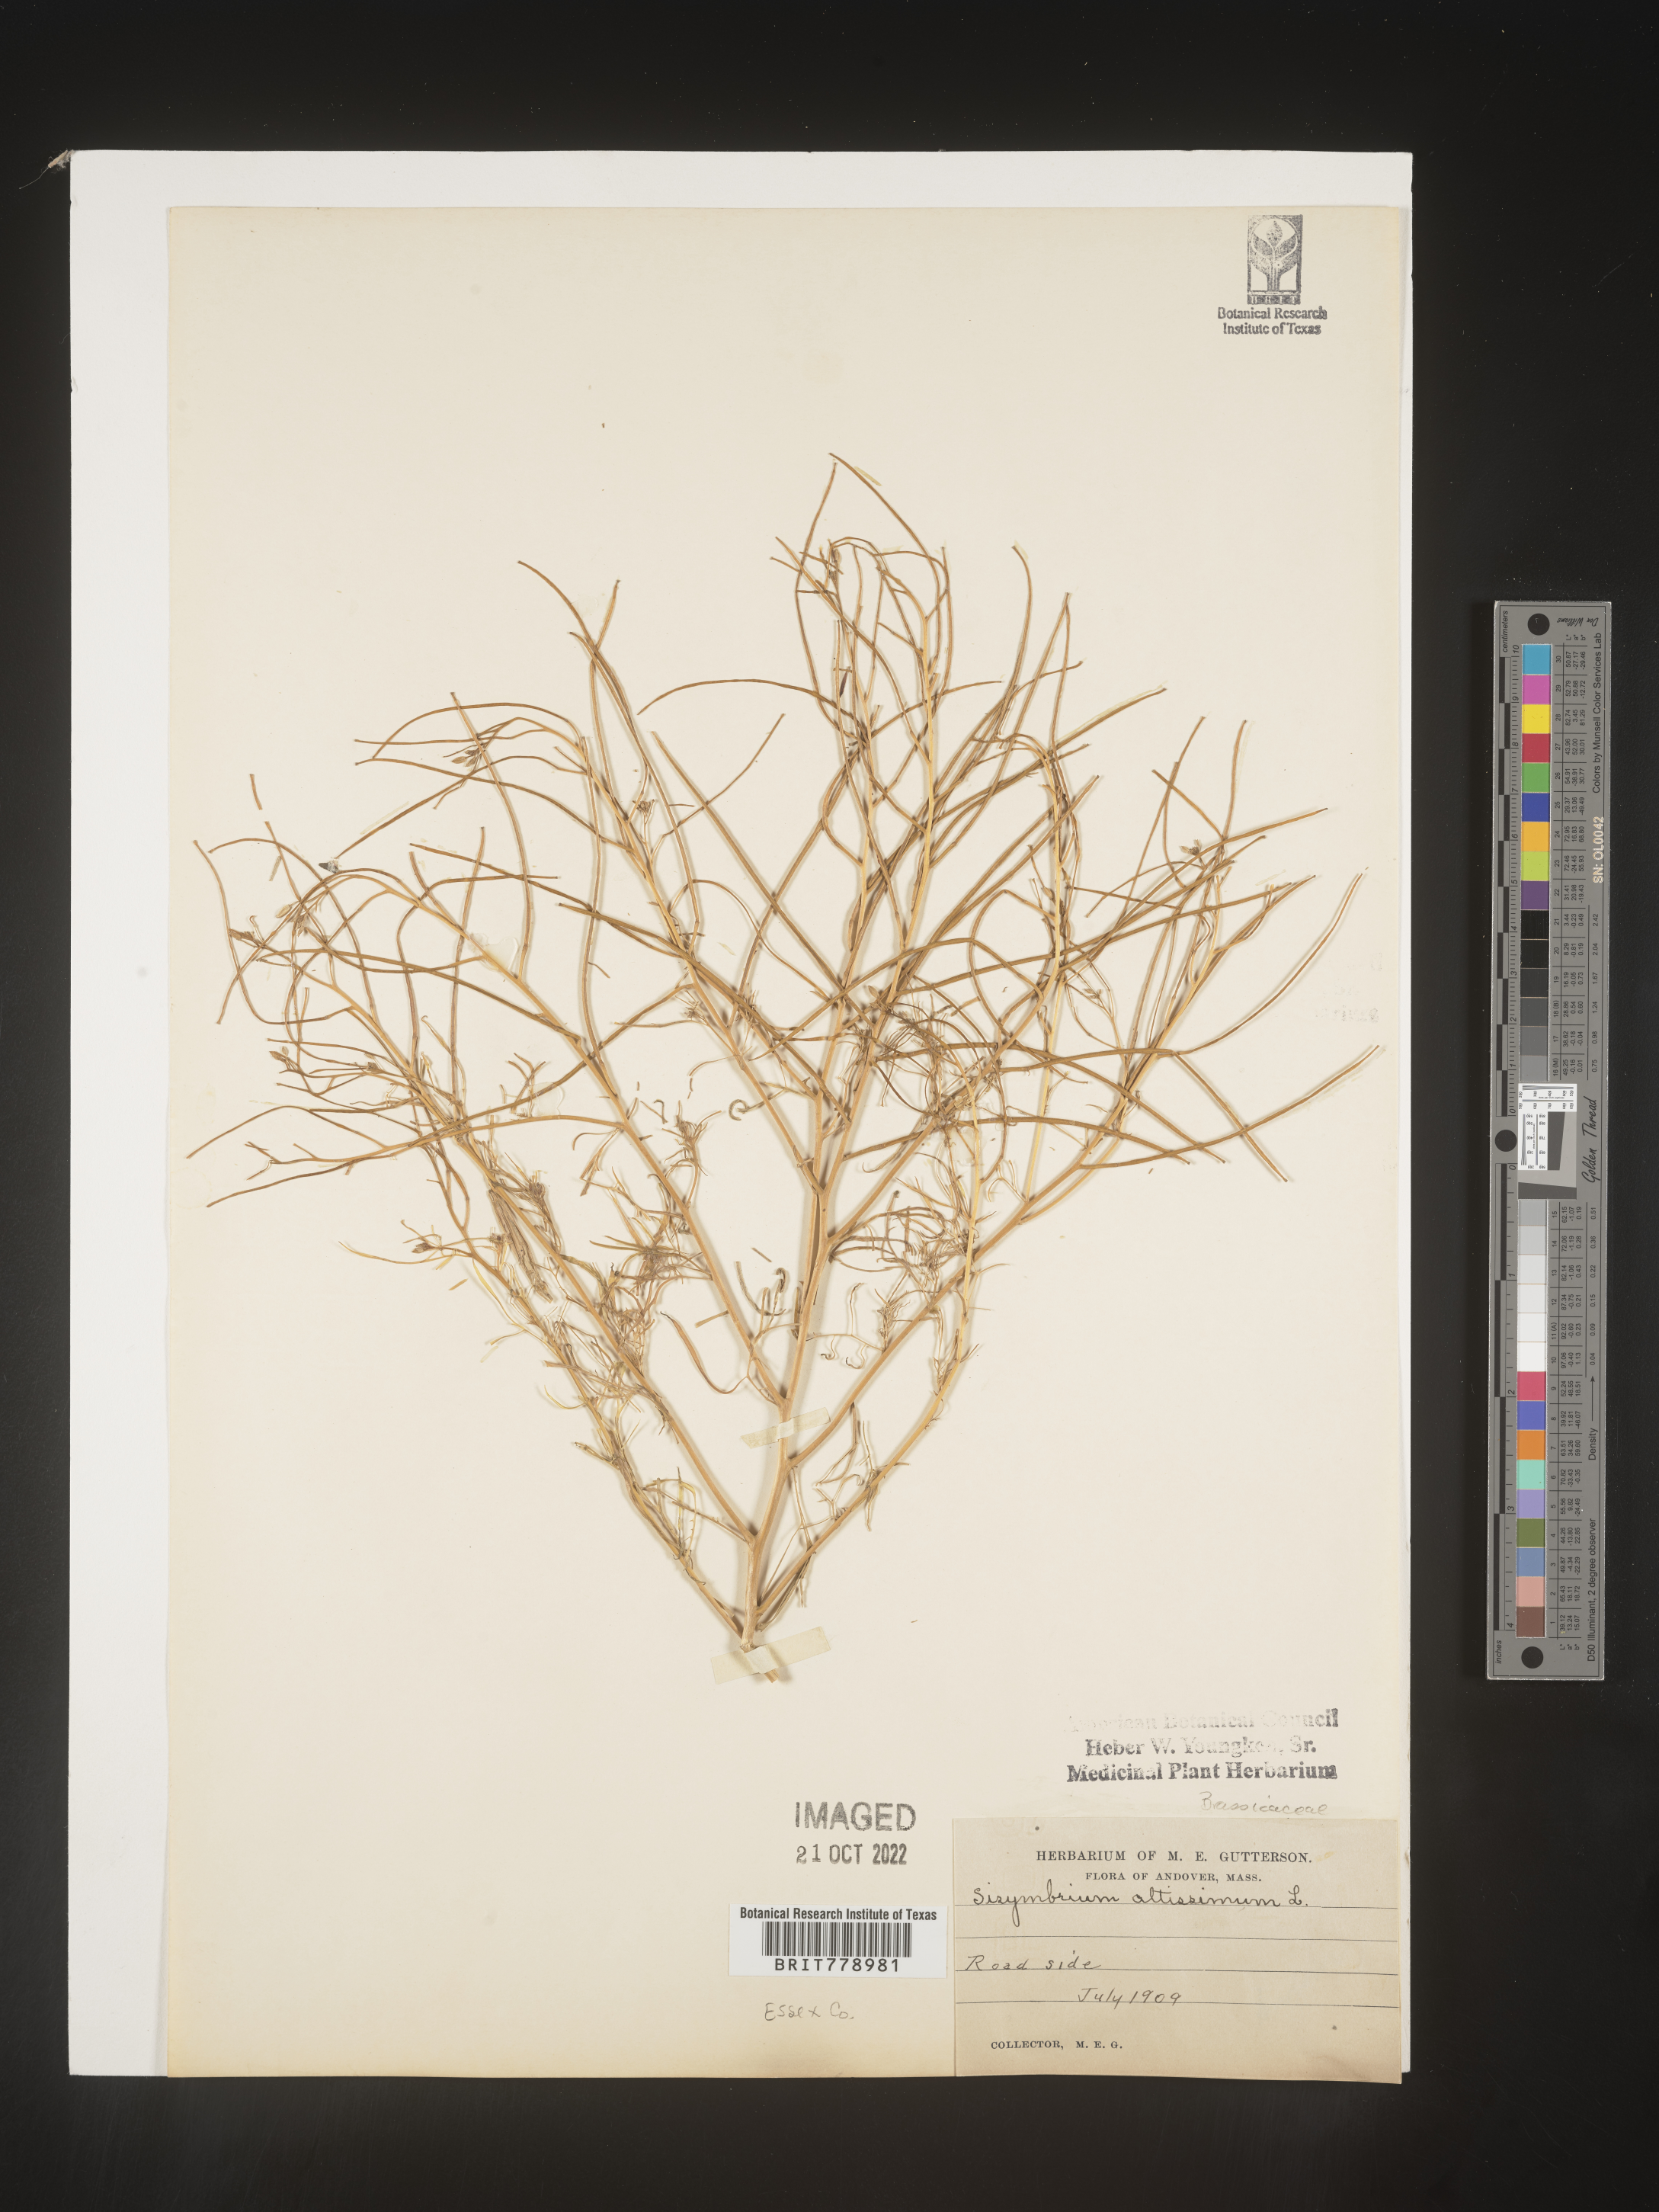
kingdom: Plantae
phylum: Tracheophyta
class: Magnoliopsida
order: Brassicales
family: Brassicaceae
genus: Sisymbrium
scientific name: Sisymbrium altissimum
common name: Tall rocket
